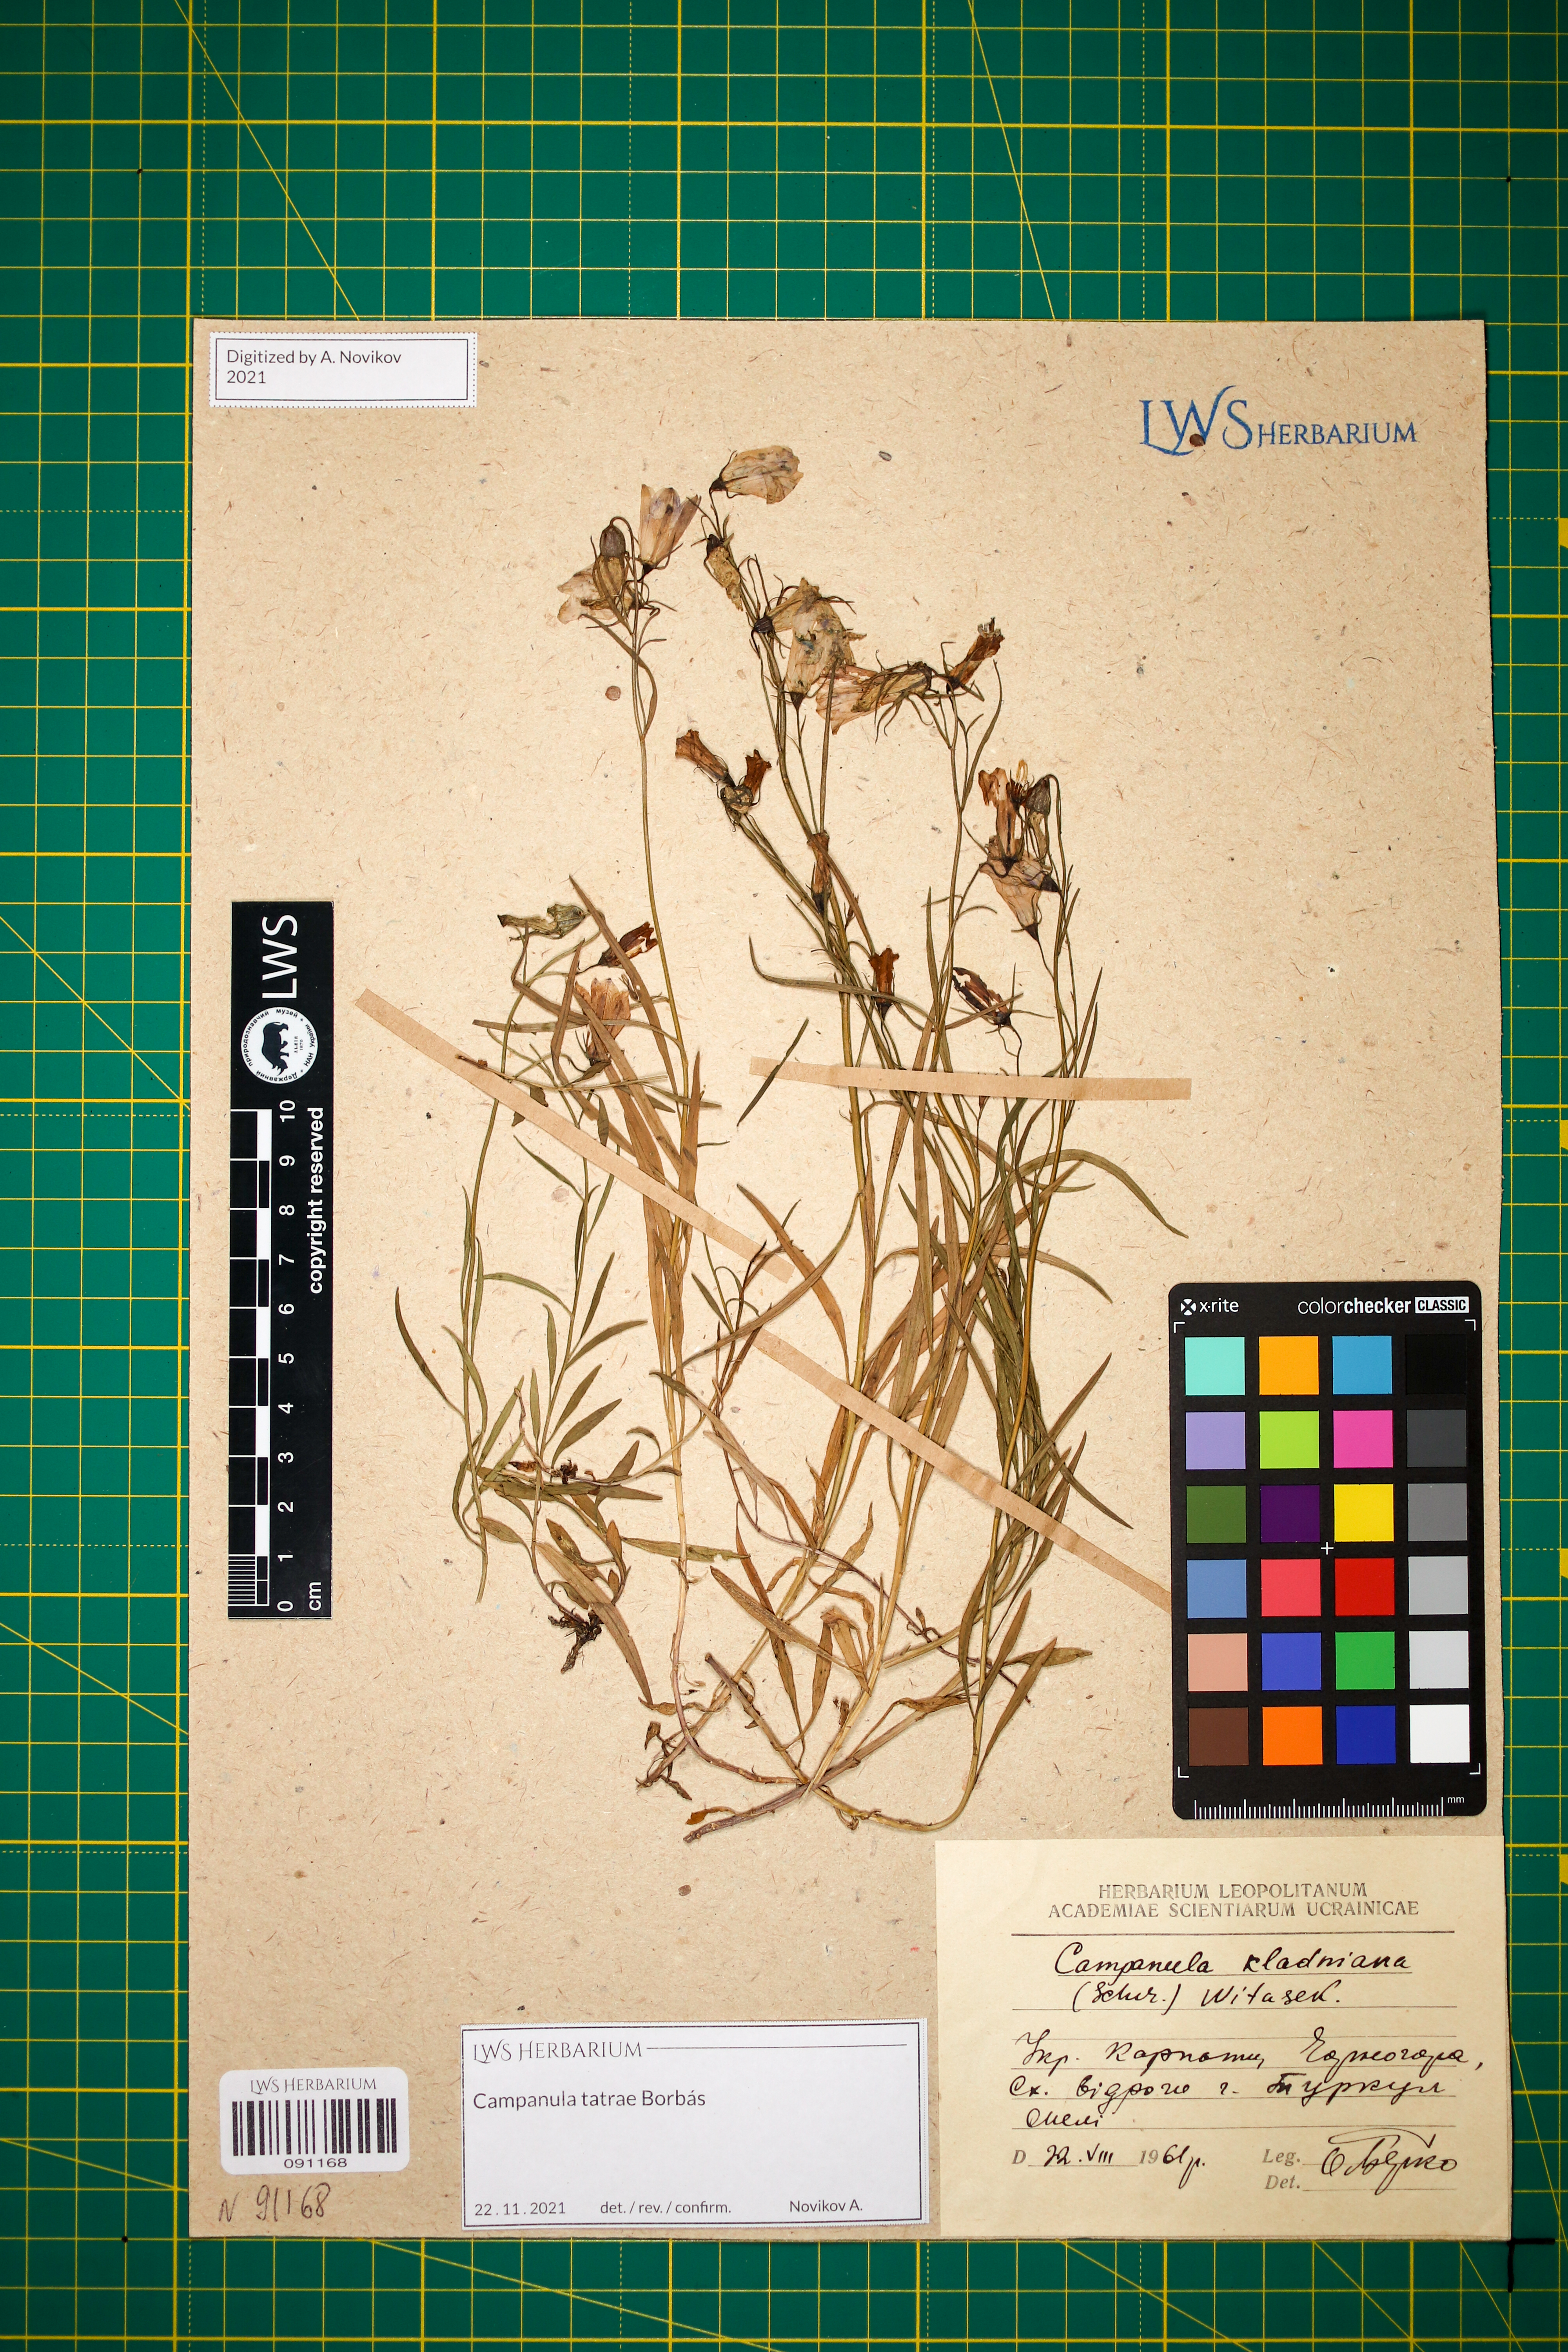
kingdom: Plantae
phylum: Tracheophyta
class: Magnoliopsida
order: Asterales
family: Campanulaceae
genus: Campanula
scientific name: Campanula kladniana
